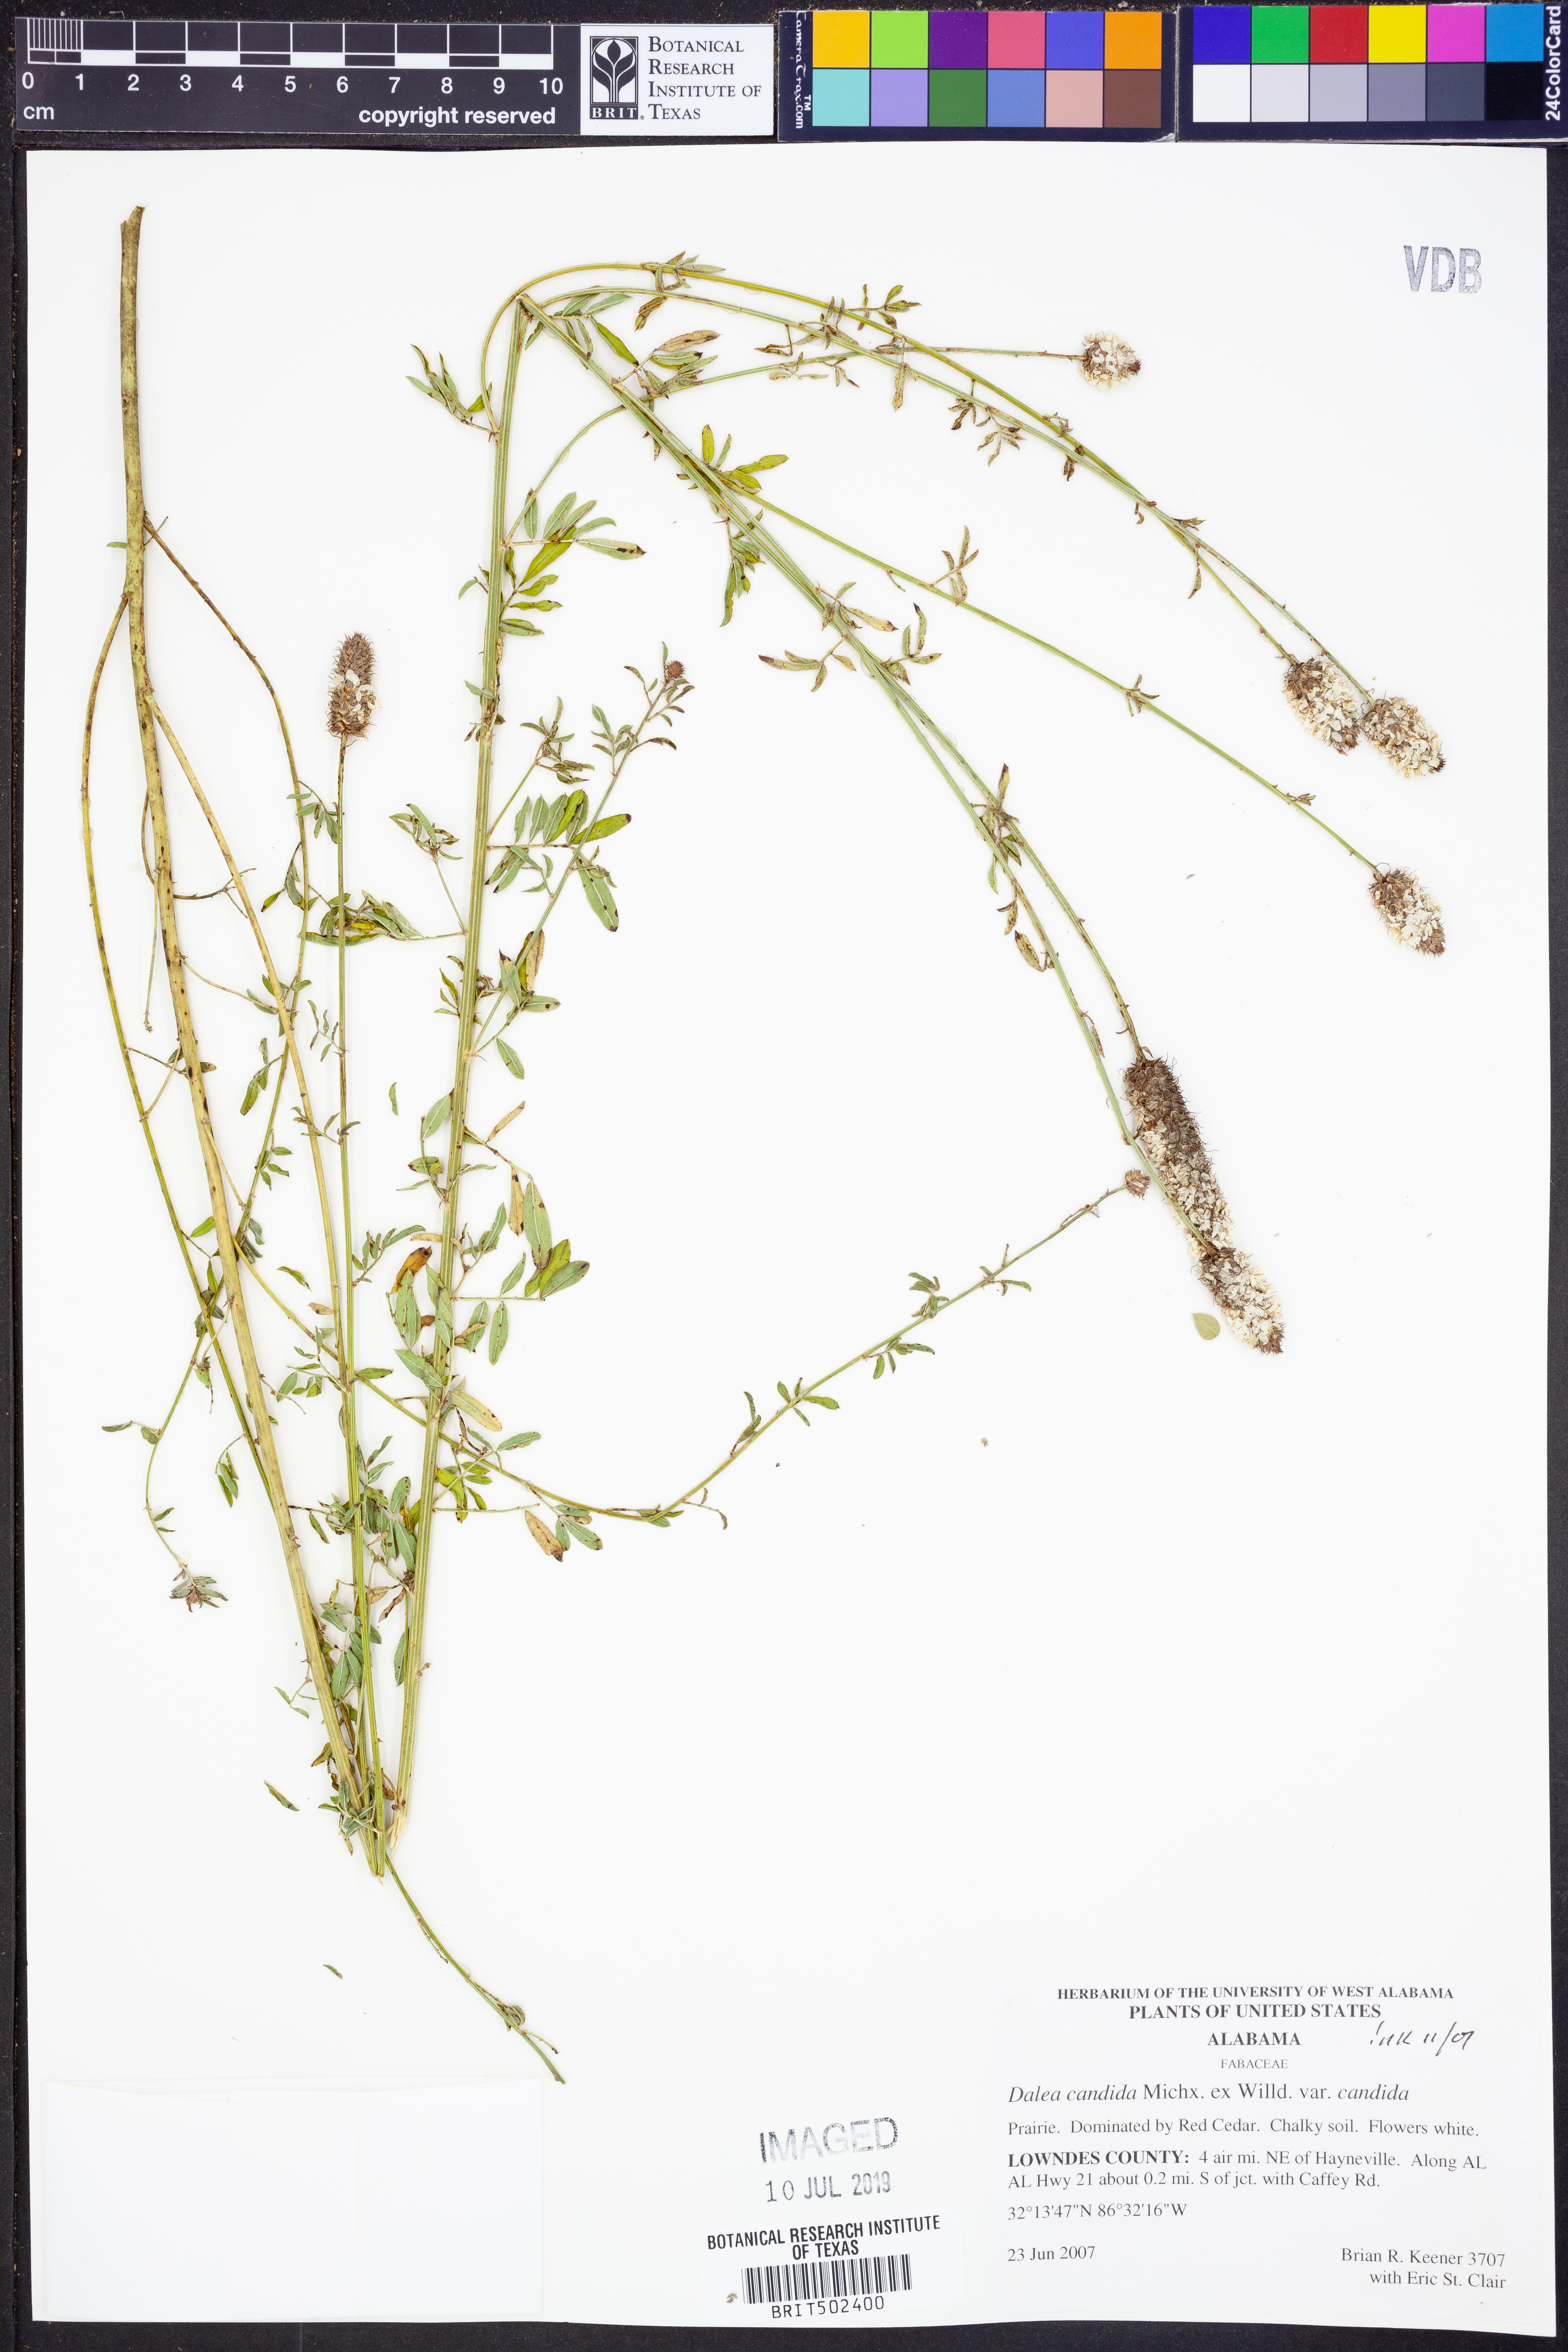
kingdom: Plantae
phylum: Tracheophyta
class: Magnoliopsida
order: Fabales
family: Fabaceae
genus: Dalea
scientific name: Dalea candida
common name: White prairie-clover
